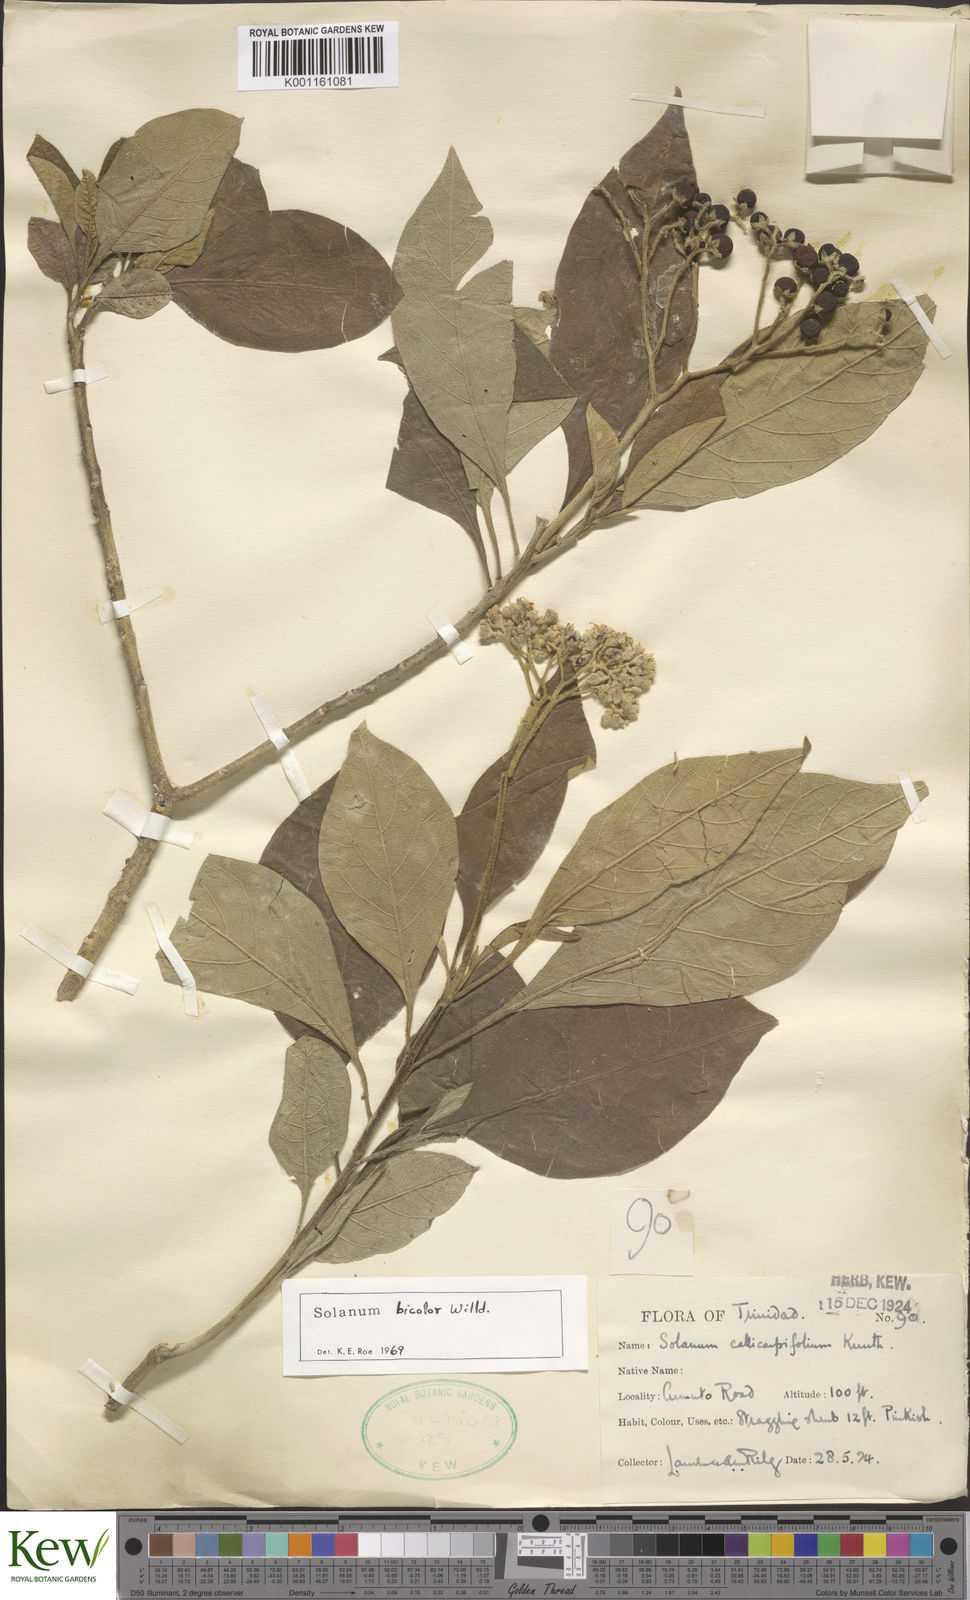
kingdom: Plantae
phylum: Tracheophyta
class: Magnoliopsida
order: Solanales
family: Solanaceae
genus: Solanum
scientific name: Solanum bicolor
